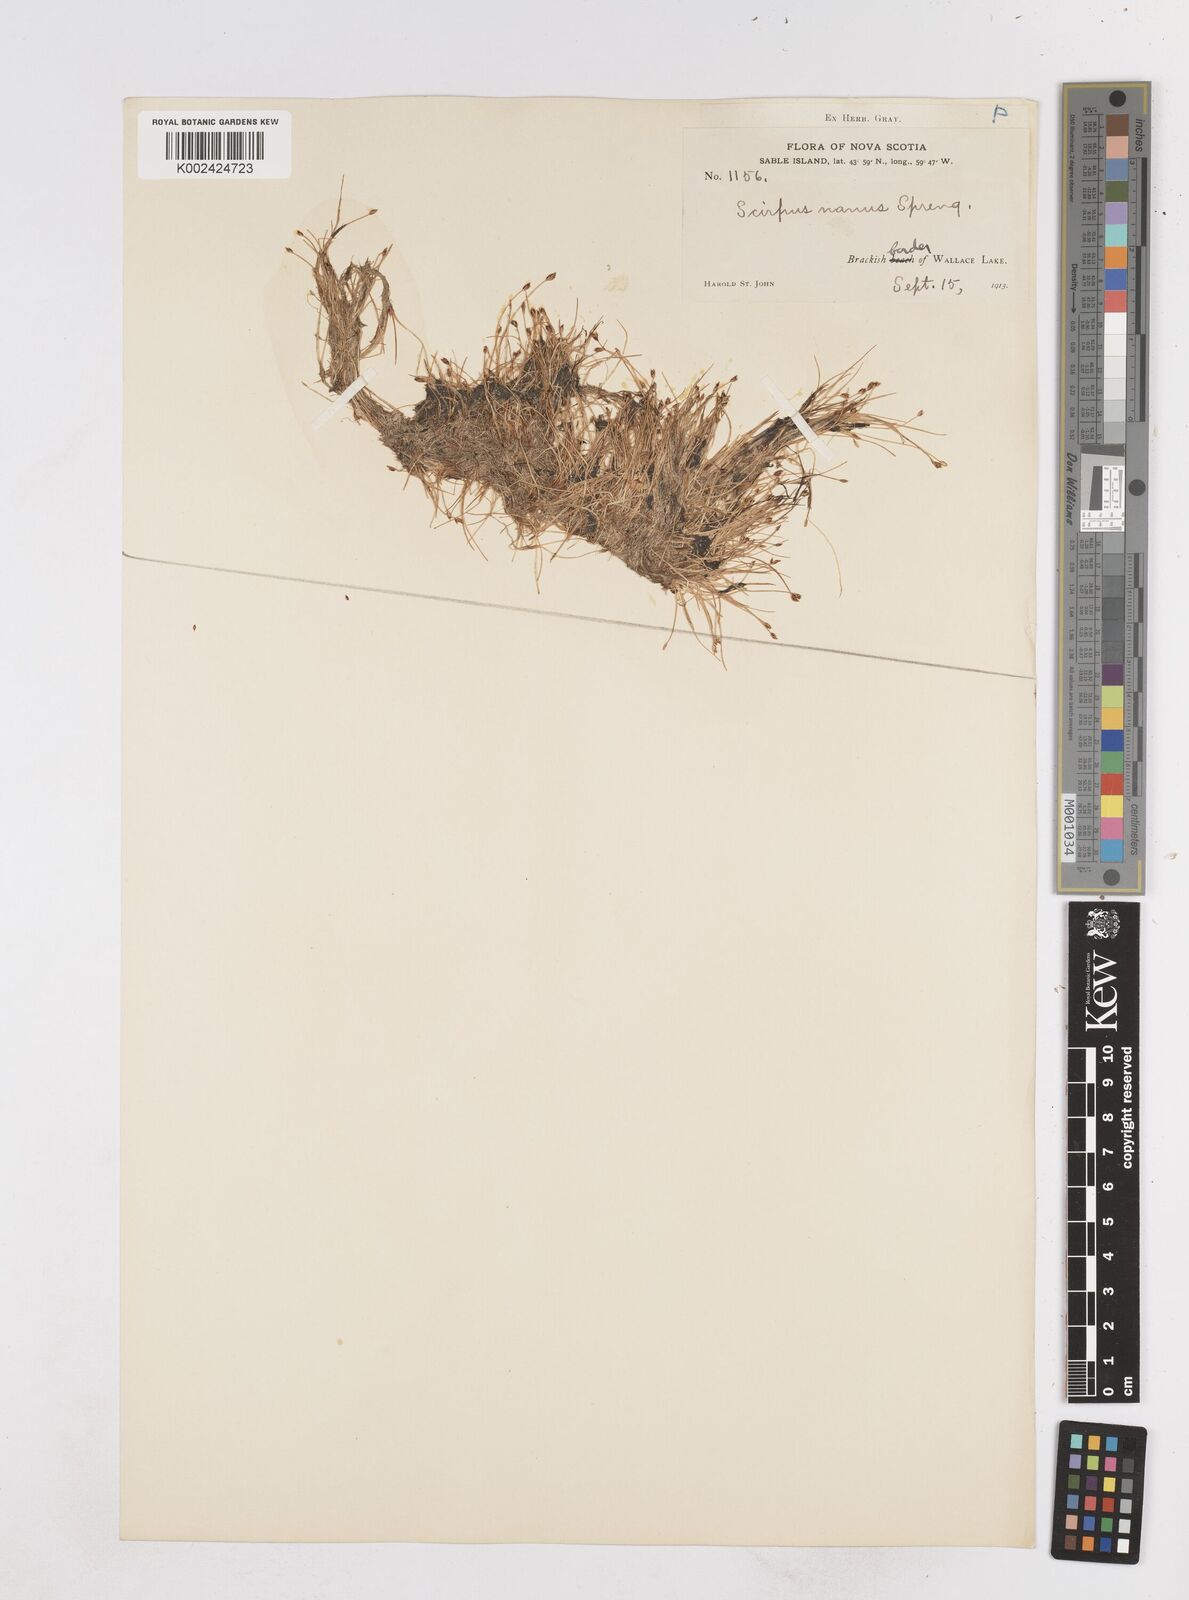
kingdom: Plantae
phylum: Tracheophyta
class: Liliopsida
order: Poales
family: Cyperaceae
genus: Eleocharis
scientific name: Eleocharis parvula
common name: Dwarf spike-rush
